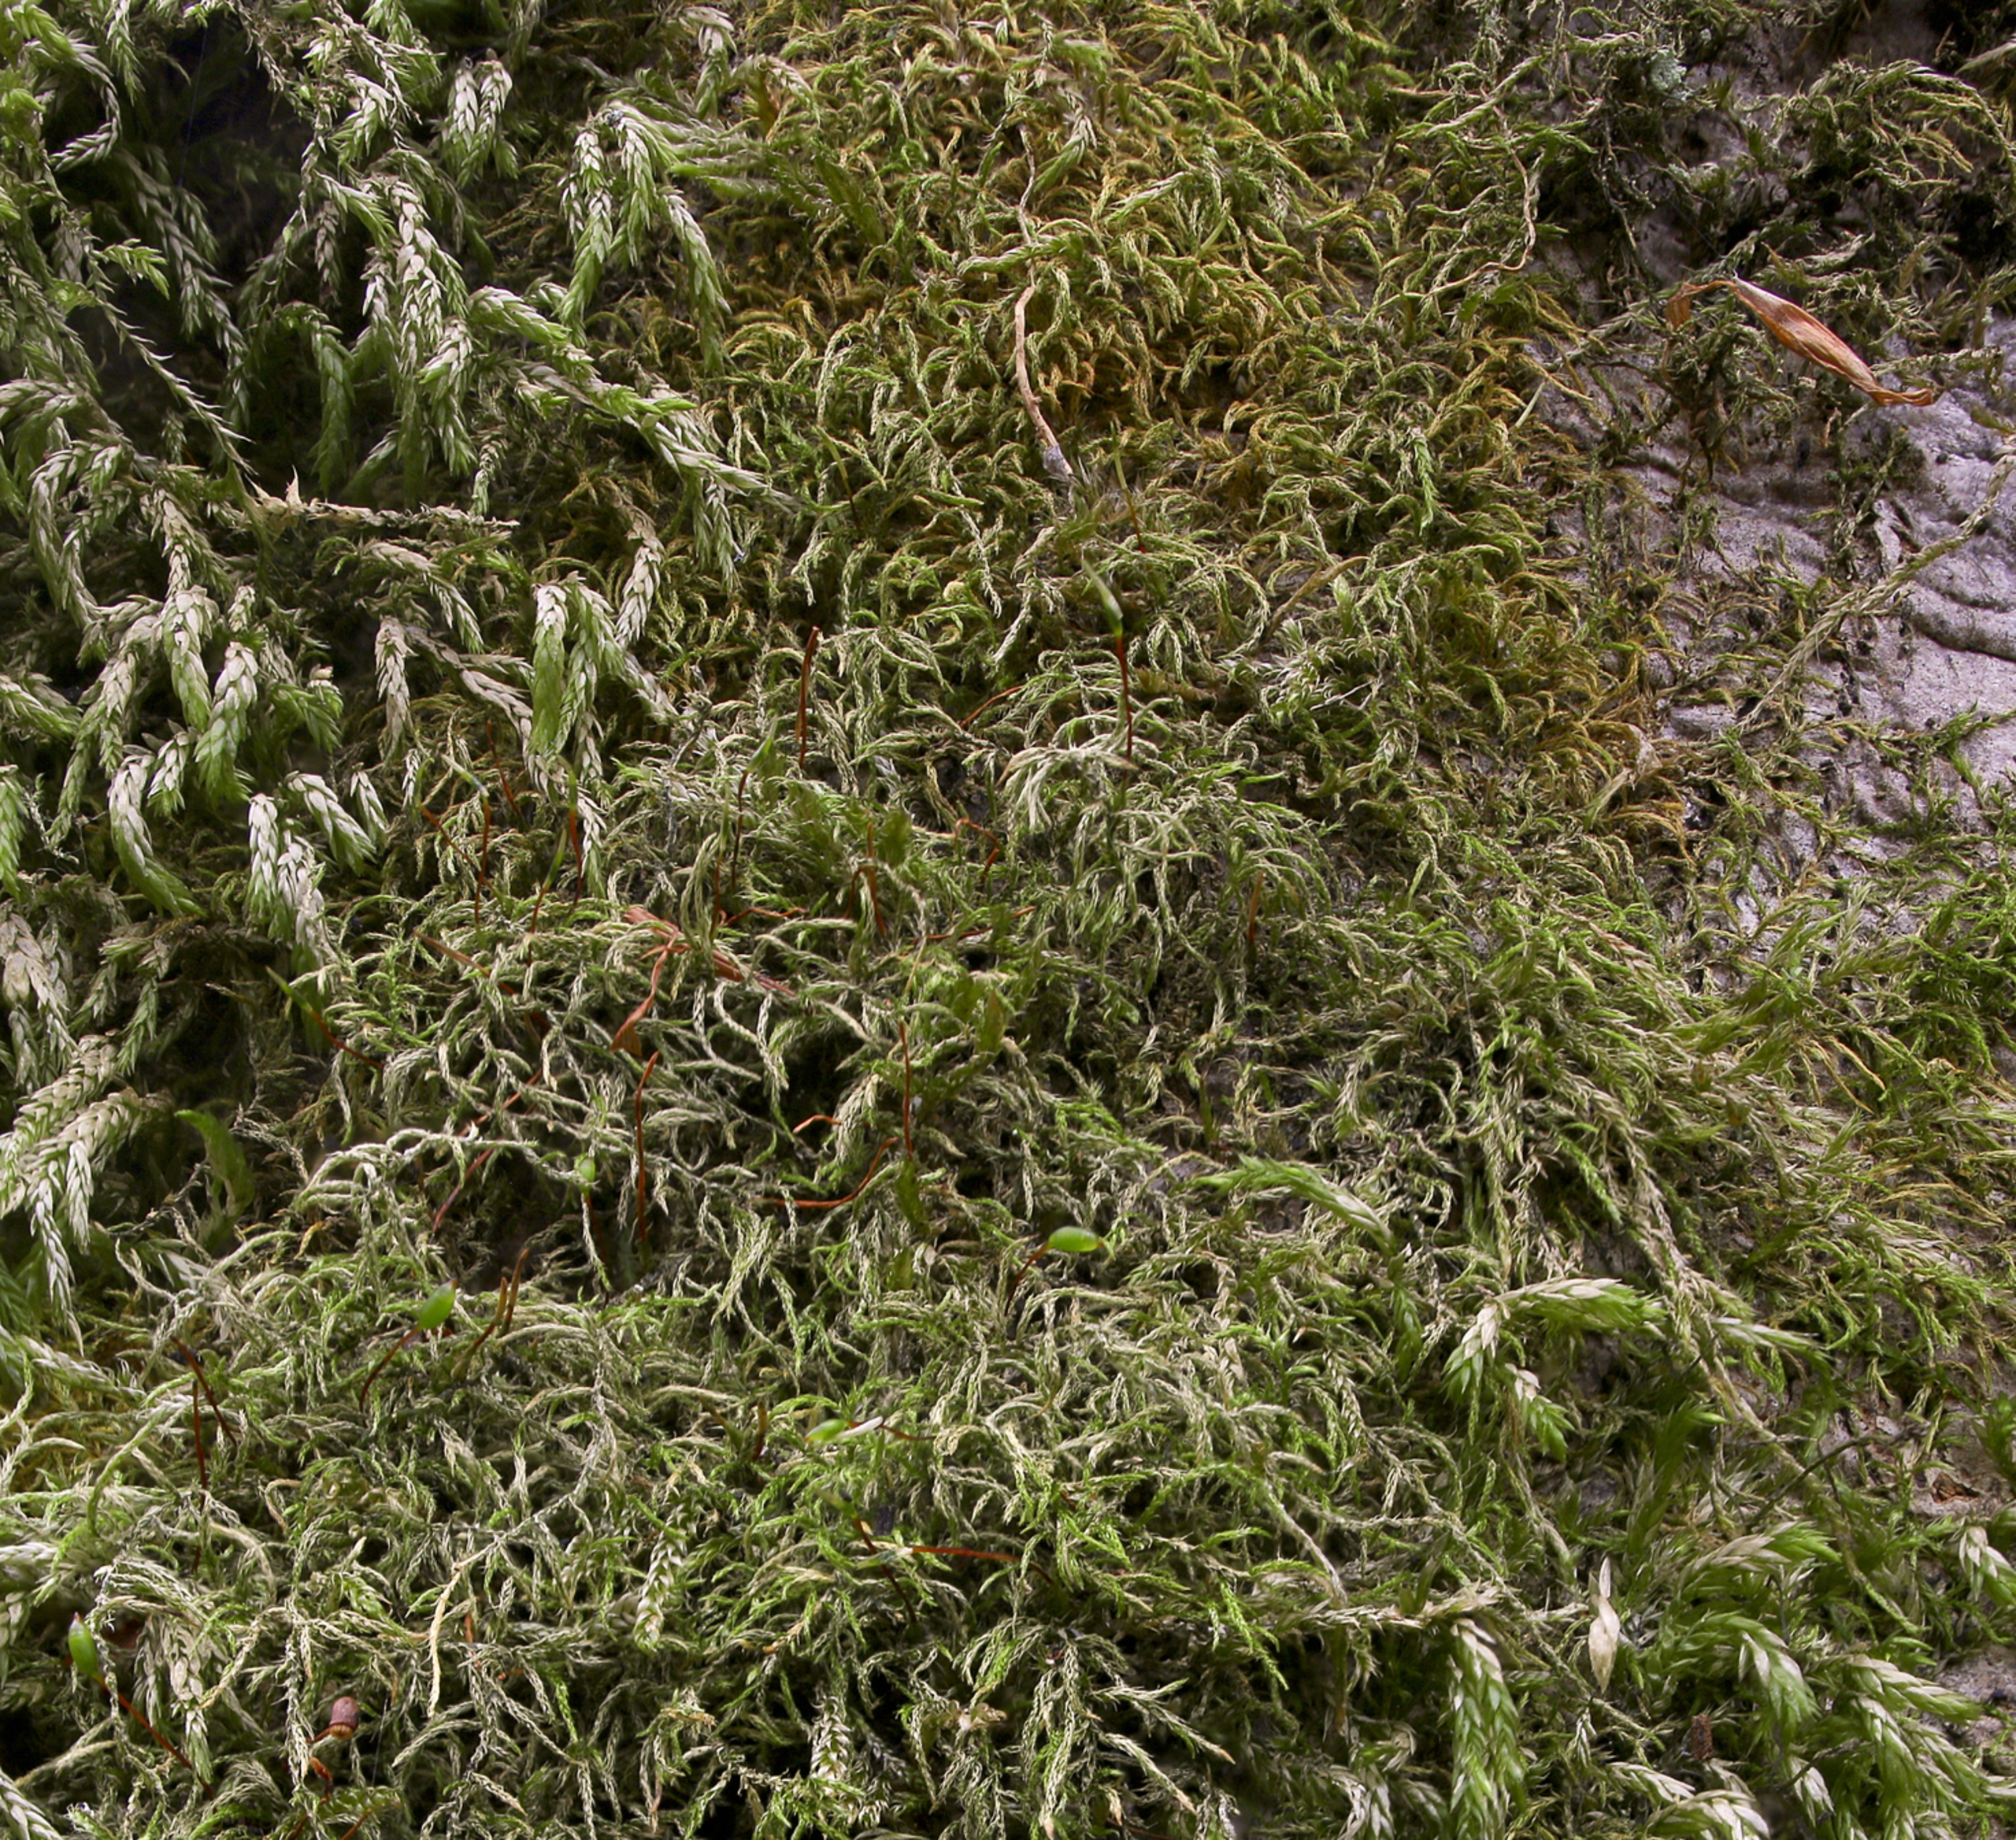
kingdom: Plantae
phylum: Bryophyta
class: Bryopsida
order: Hypnales
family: Brachytheciaceae
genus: Sciuro-hypnum
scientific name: Sciuro-hypnum reflexum
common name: Elle-kortkapsel
